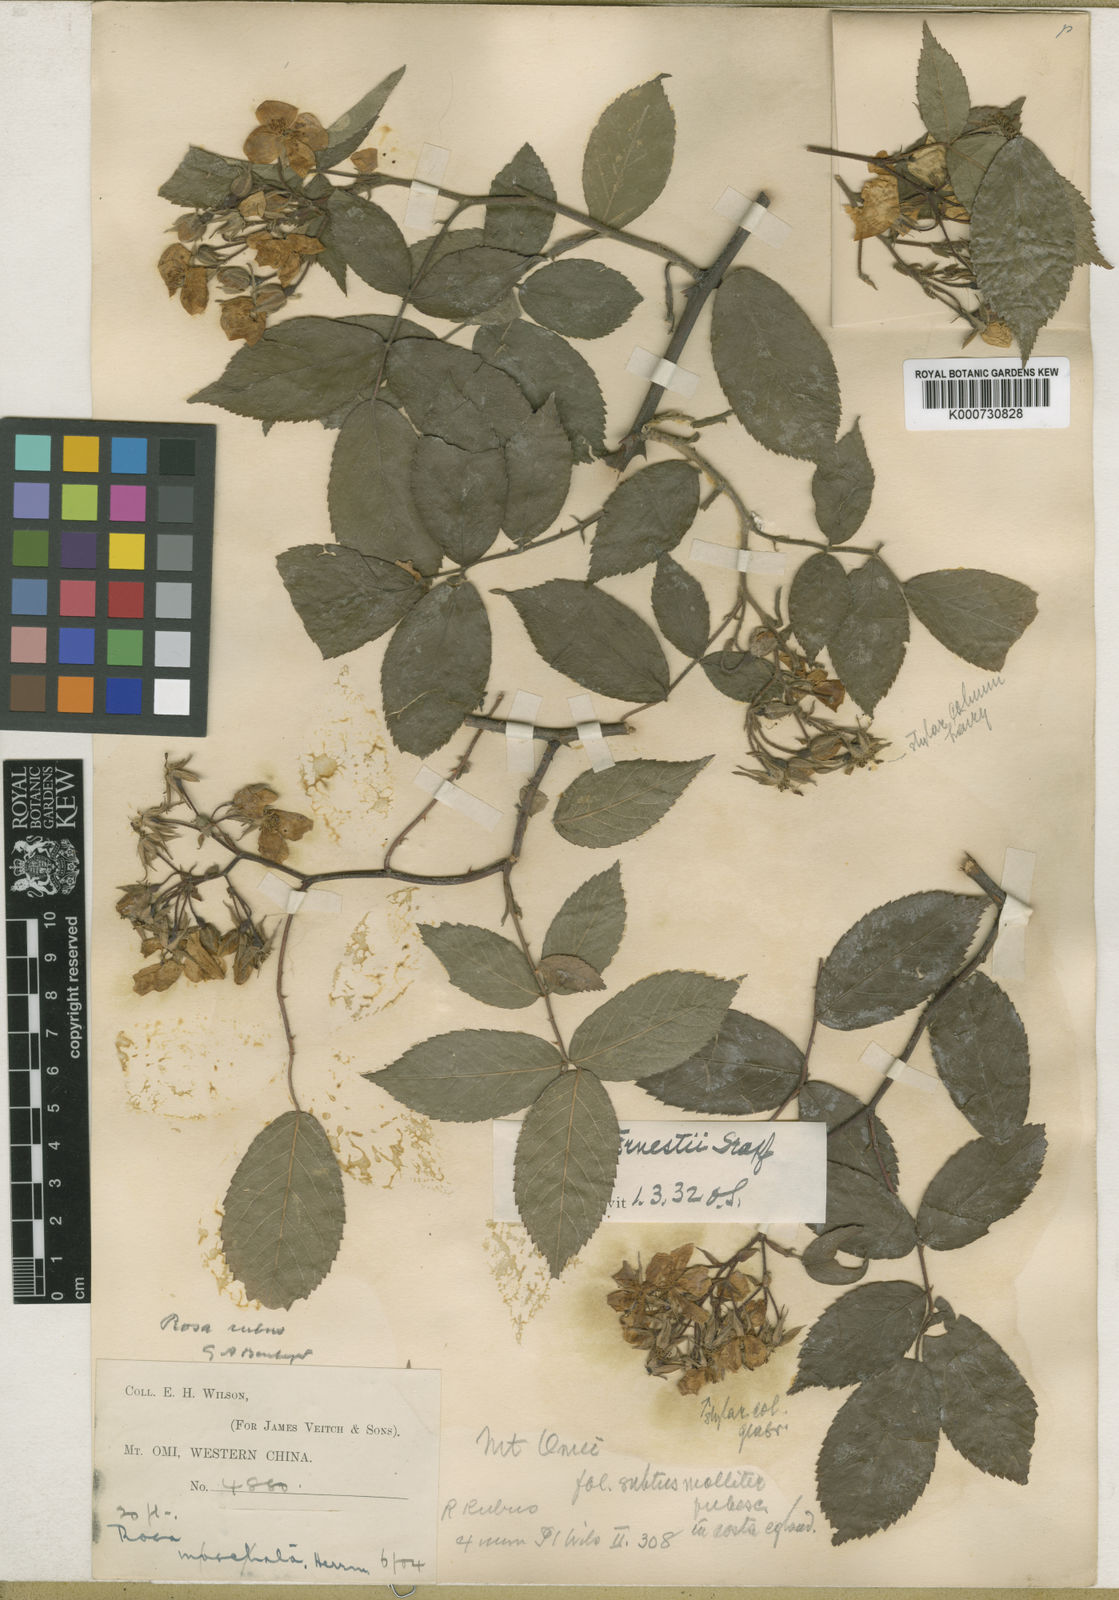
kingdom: Plantae
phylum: Tracheophyta
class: Magnoliopsida
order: Rosales
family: Rosaceae
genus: Rosa
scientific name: Rosa rubus
